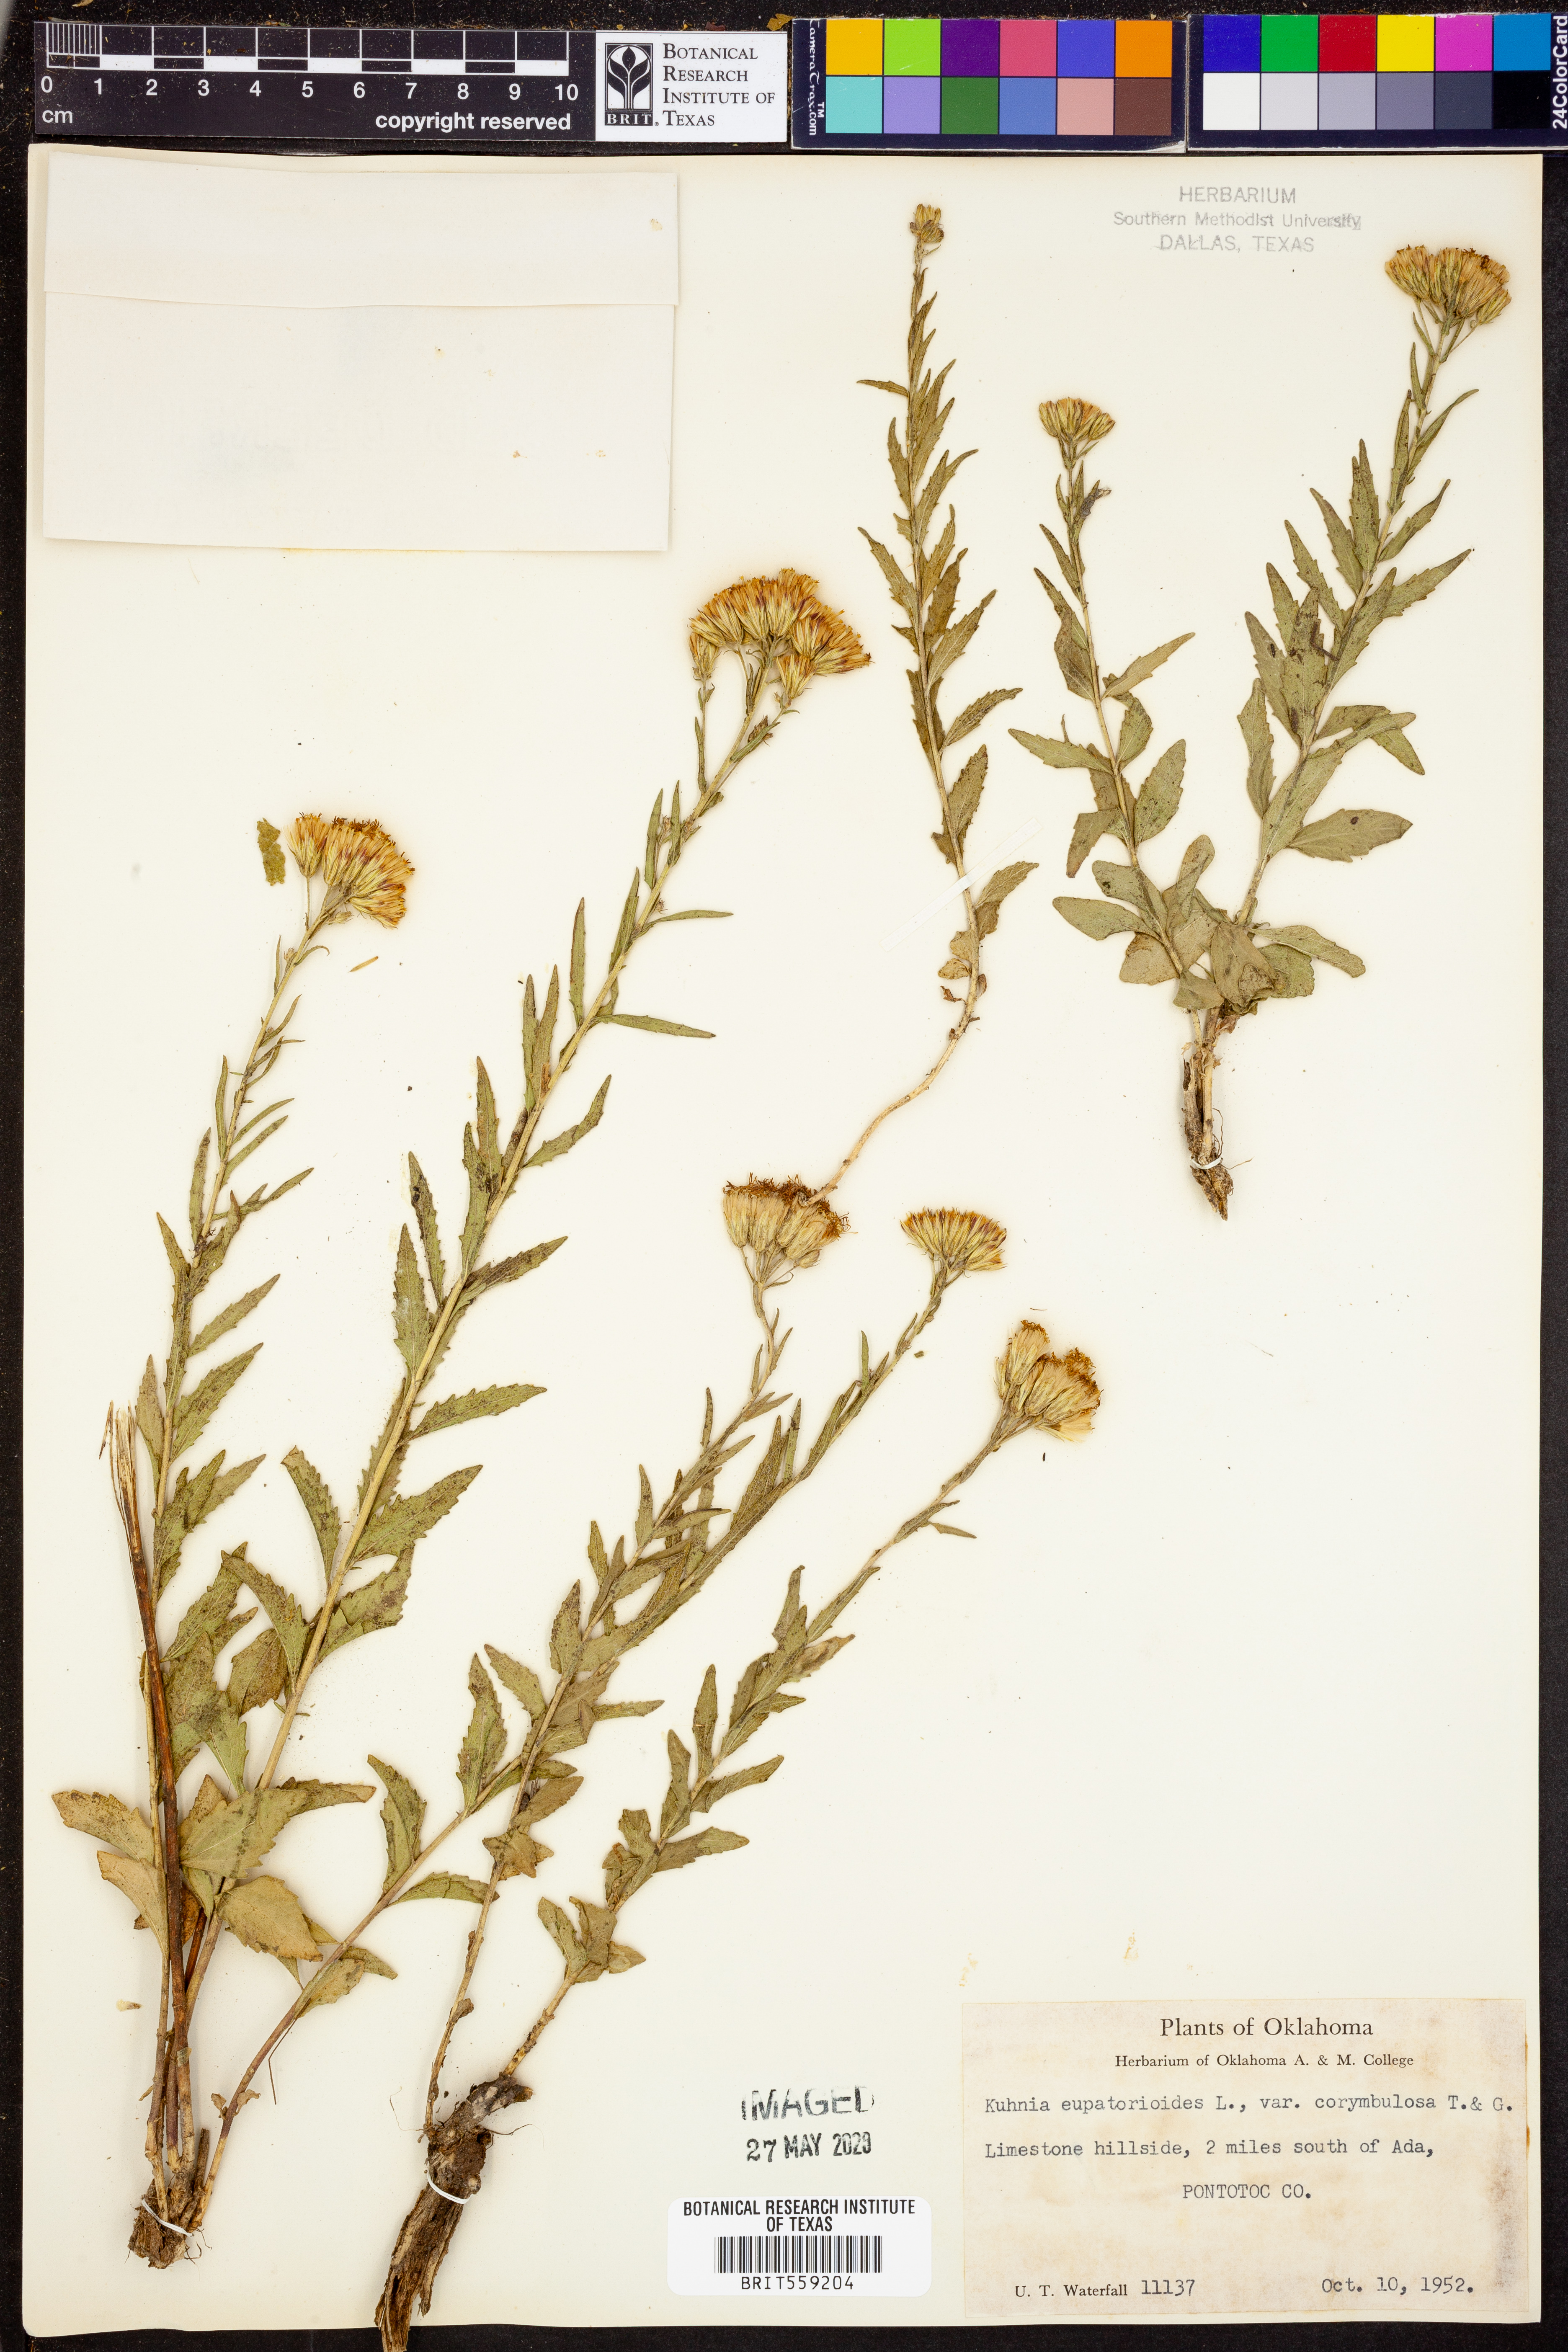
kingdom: Plantae
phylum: Tracheophyta
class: Magnoliopsida
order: Asterales
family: Asteraceae
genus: Brickellia
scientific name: Brickellia suaveolens
